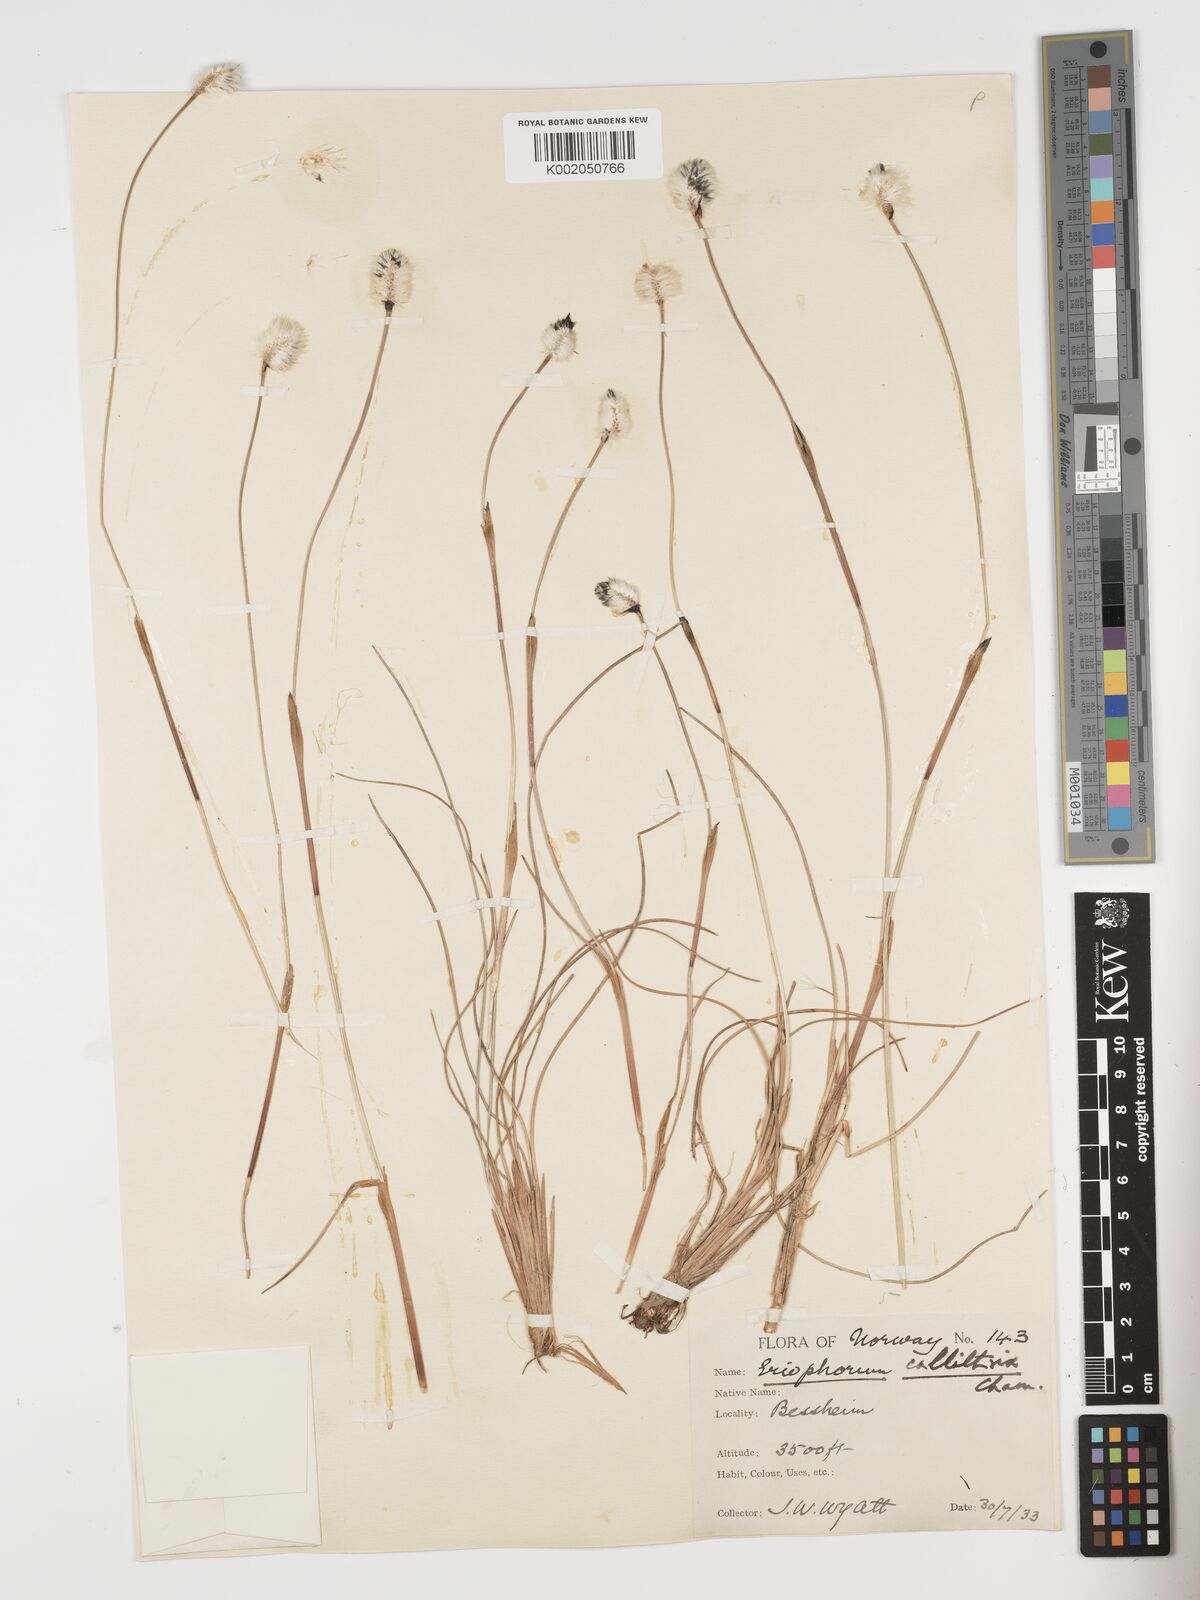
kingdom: Plantae
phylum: Tracheophyta
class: Liliopsida
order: Poales
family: Cyperaceae
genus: Eriophorum
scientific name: Eriophorum brachyantherum
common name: Closed-sheathed cottongrass
